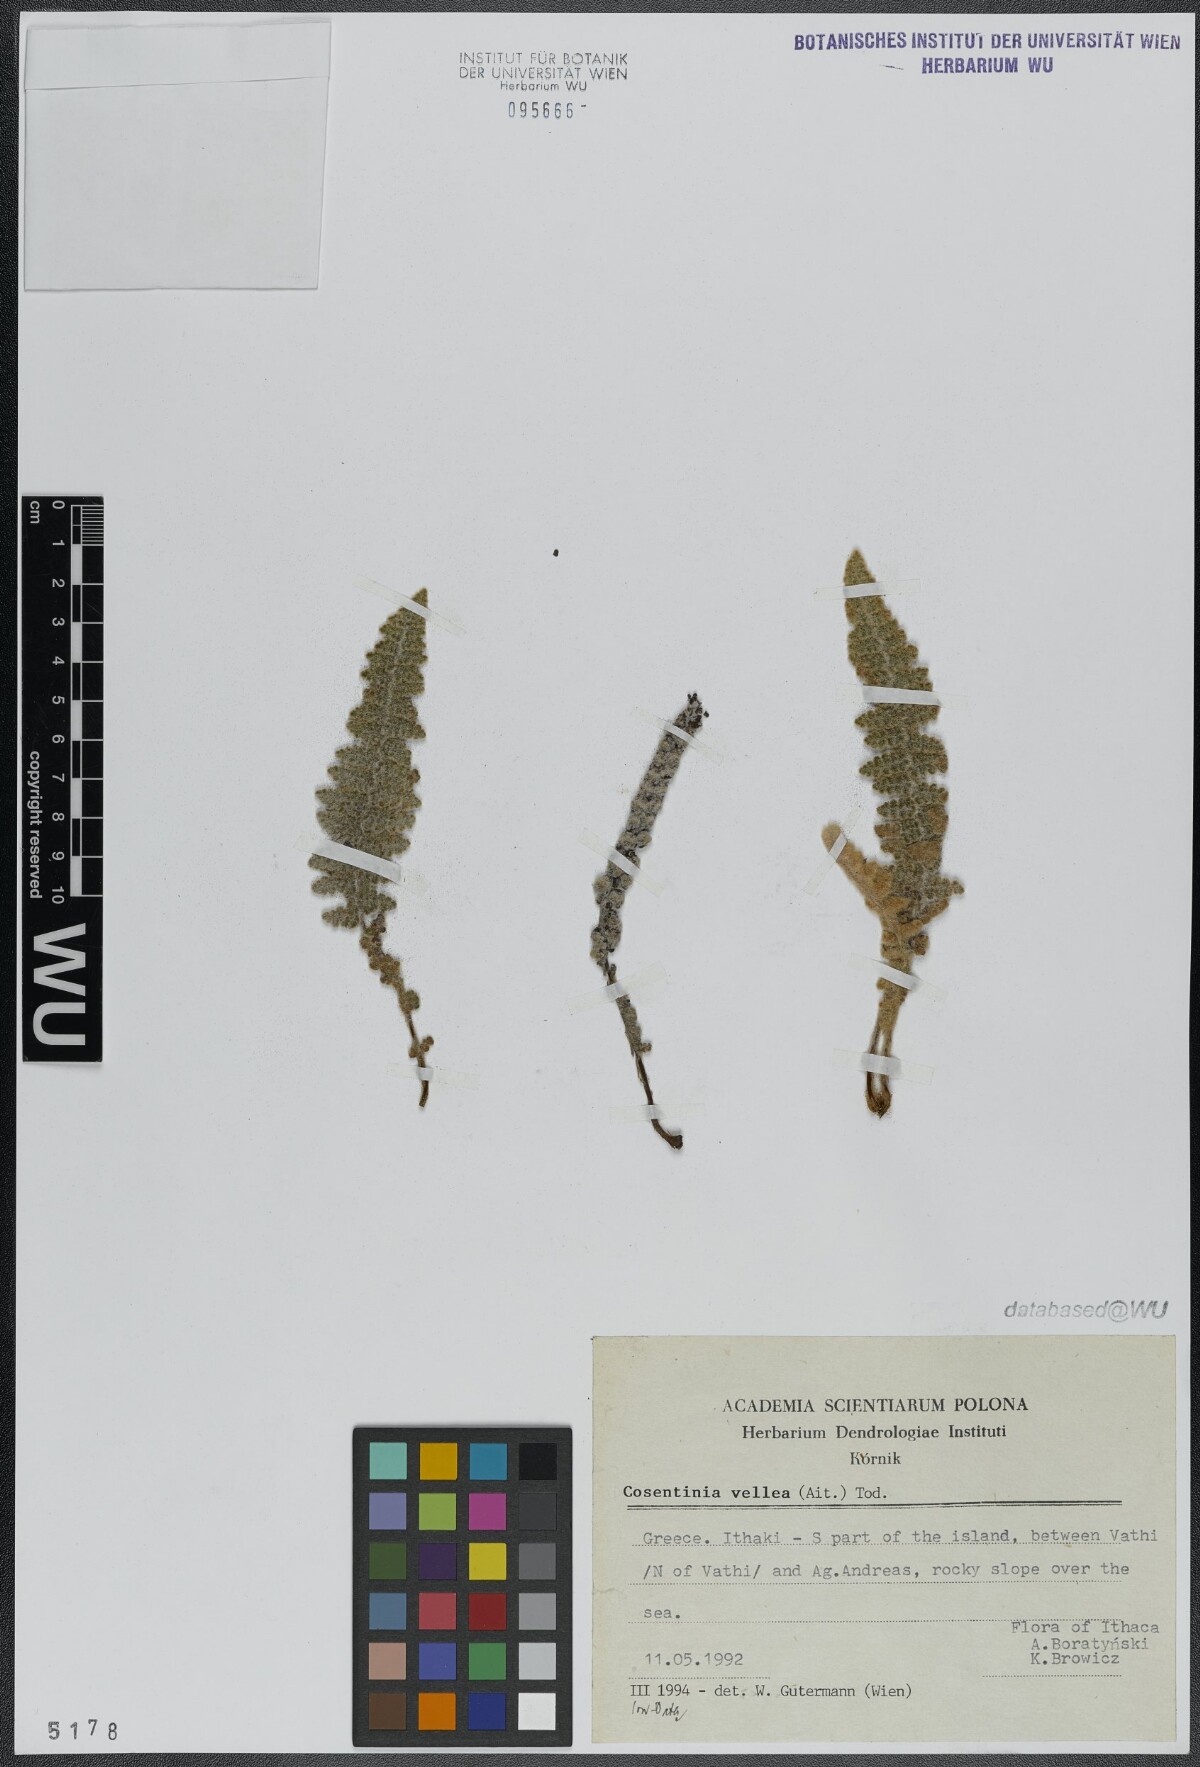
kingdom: Plantae
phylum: Tracheophyta
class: Polypodiopsida
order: Polypodiales
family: Pteridaceae
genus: Cosentinia
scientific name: Cosentinia vellea
